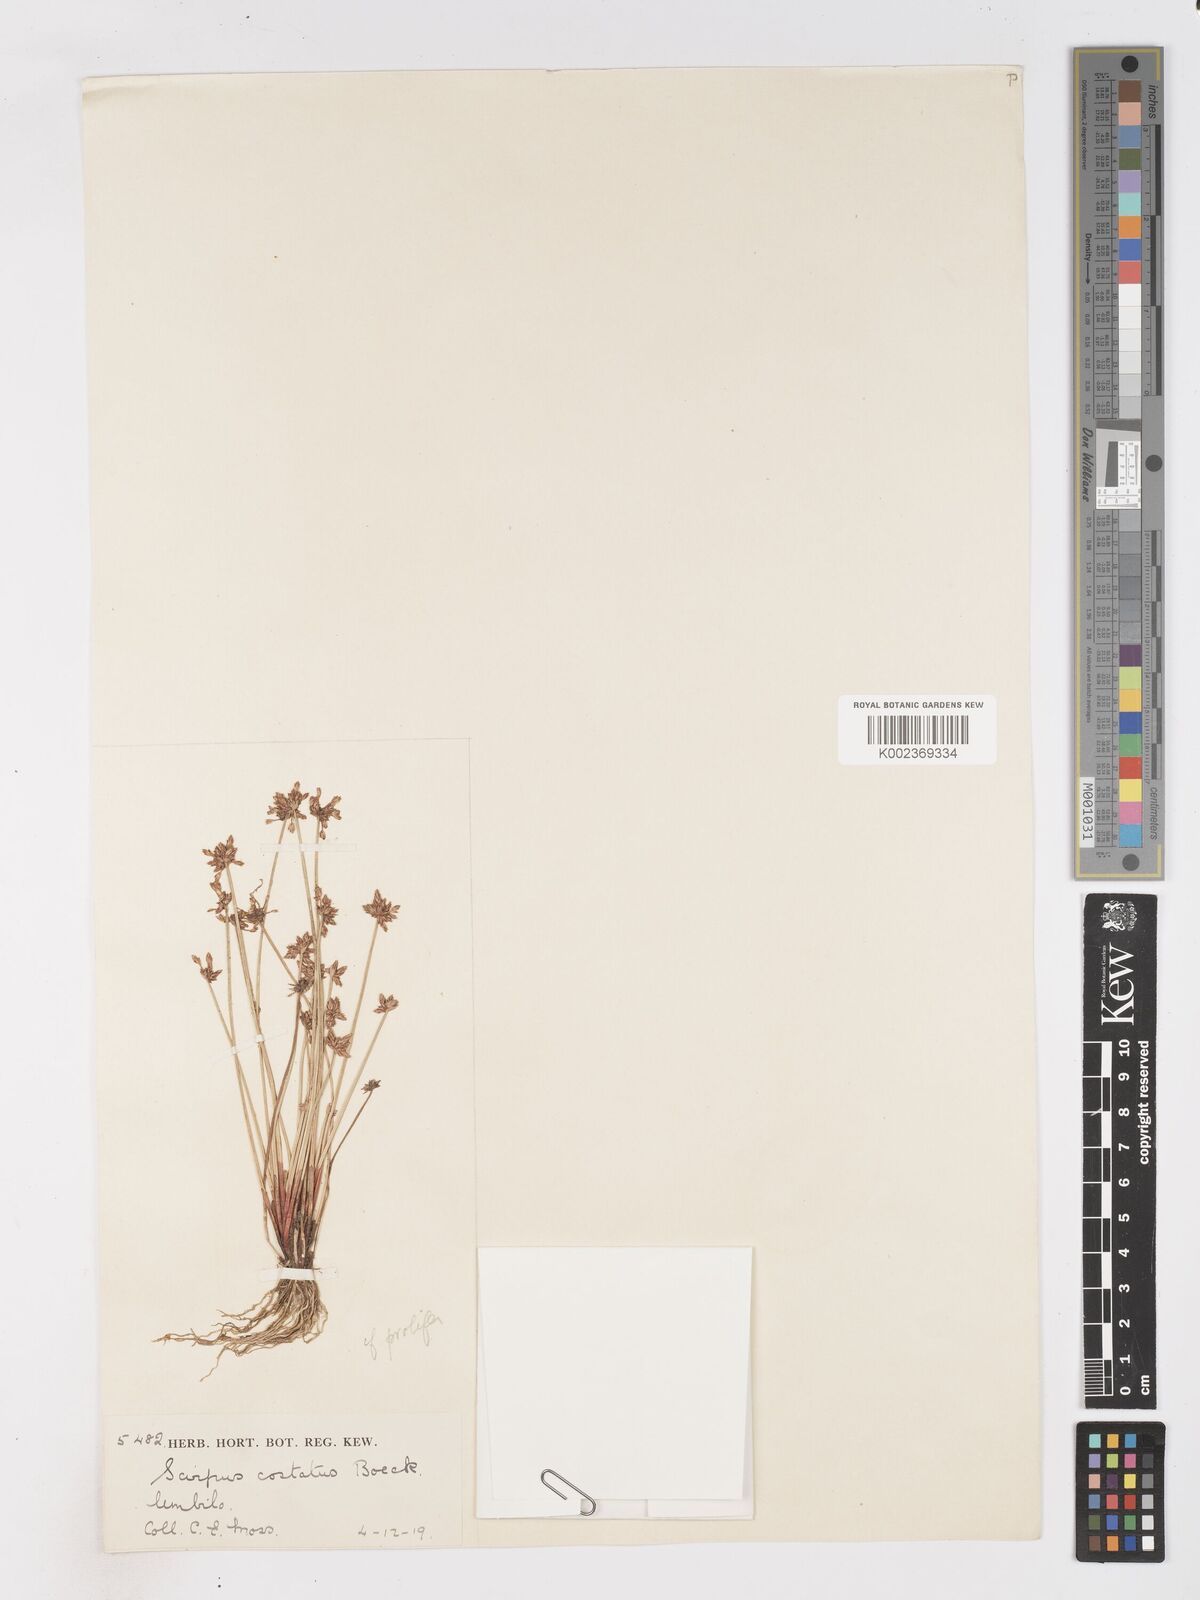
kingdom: Plantae
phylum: Tracheophyta
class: Liliopsida
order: Poales
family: Cyperaceae
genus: Isolepis
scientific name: Isolepis prolifera
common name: Proliferating bulrush
